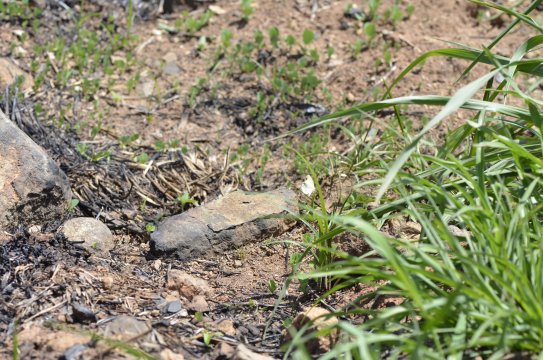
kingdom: Animalia
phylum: Arthropoda
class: Insecta
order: Lepidoptera
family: Pieridae
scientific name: Pieridae
